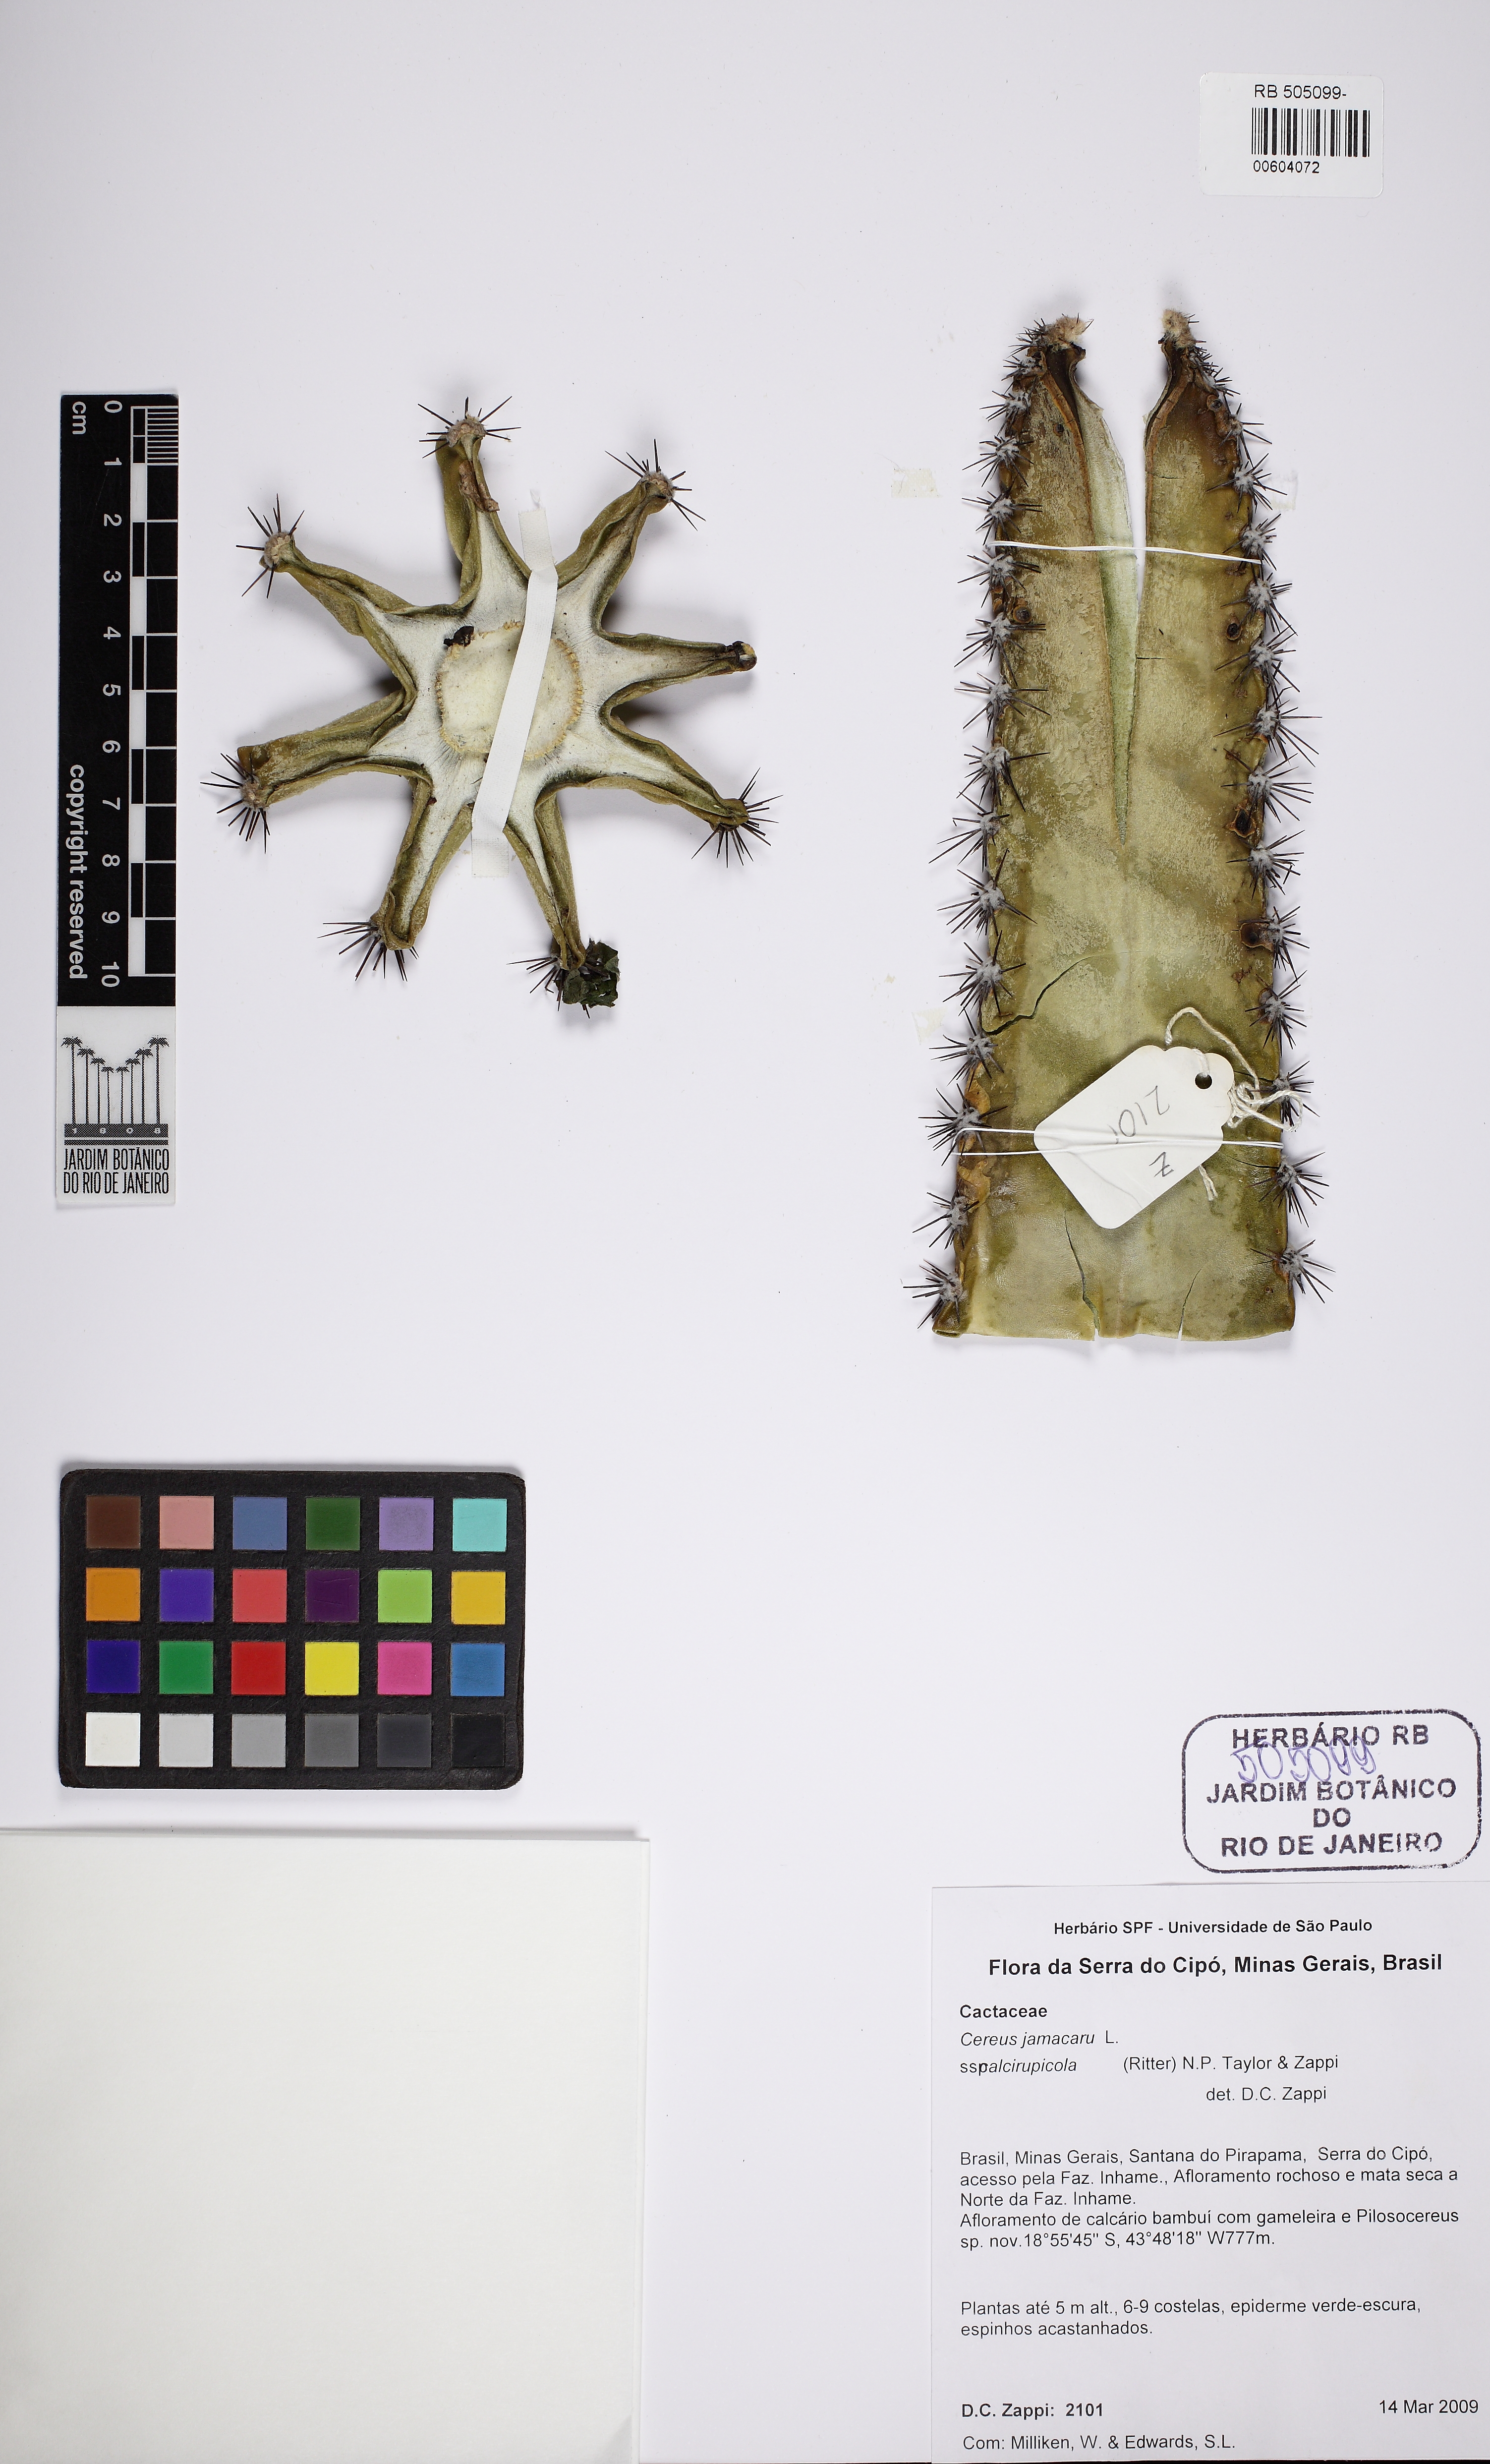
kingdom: Plantae
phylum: Tracheophyta
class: Magnoliopsida
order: Caryophyllales
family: Cactaceae
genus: Cereus
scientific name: Cereus jamacaru
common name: Queen-of-the-night
